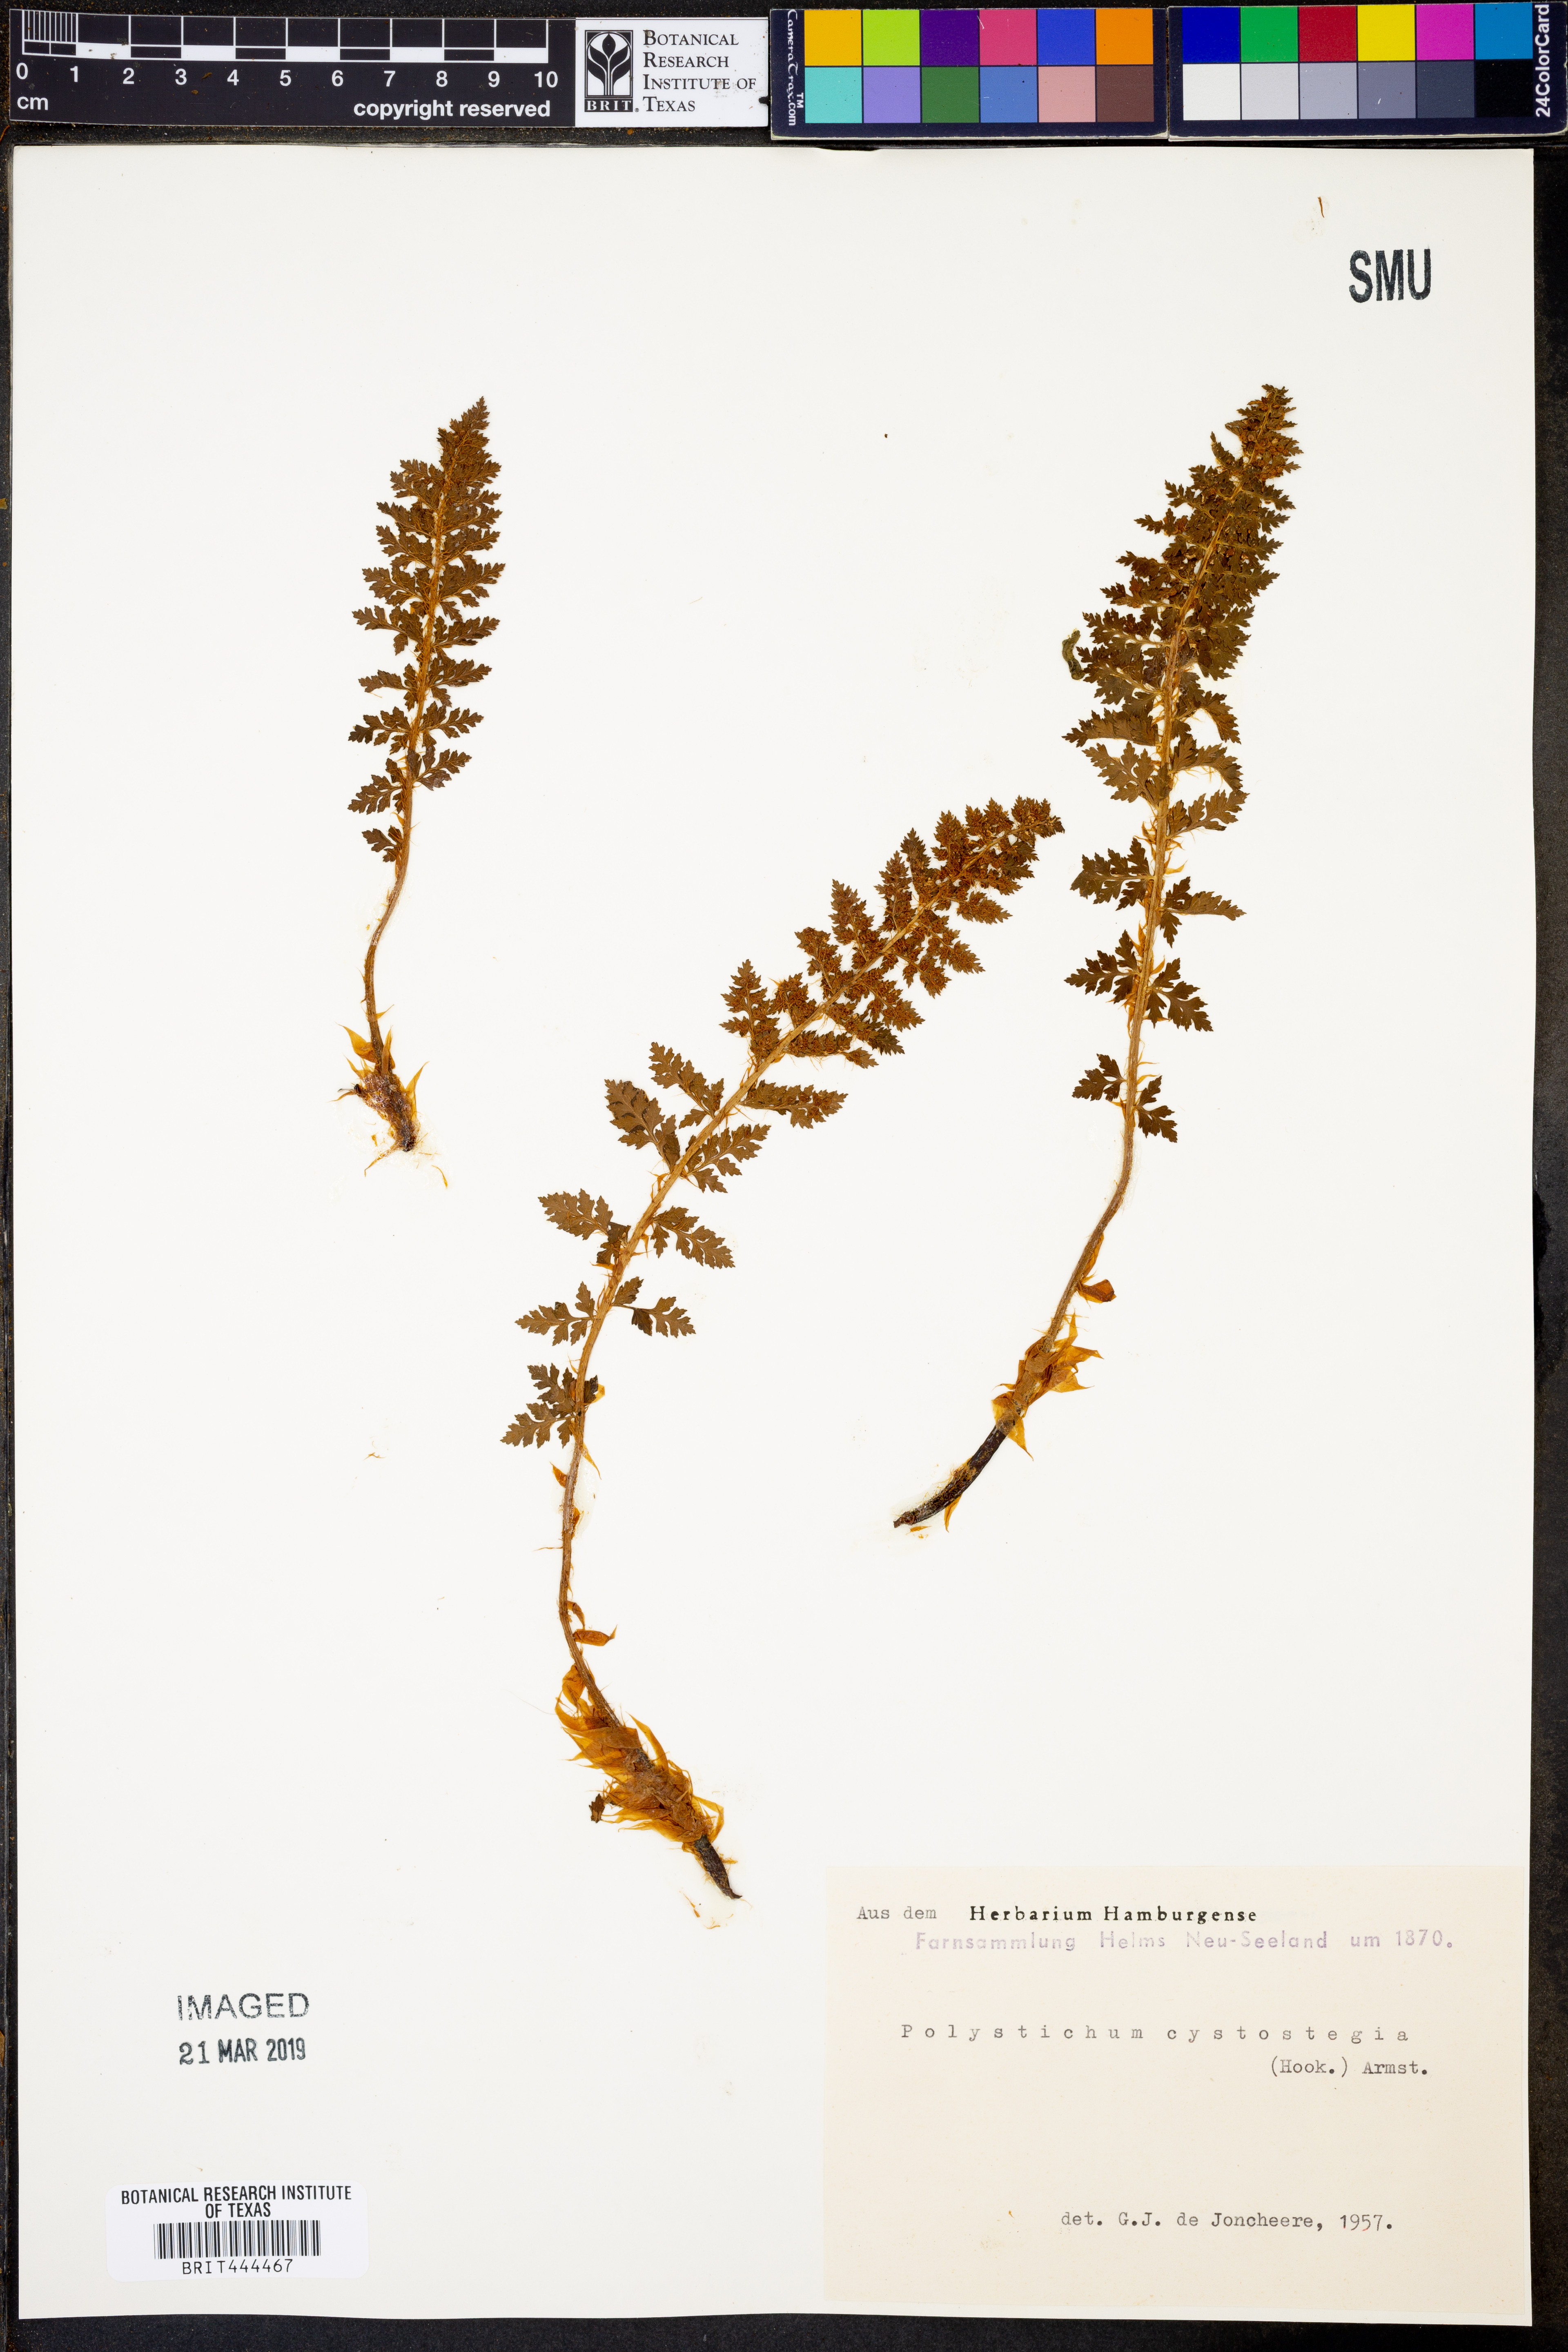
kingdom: Plantae
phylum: Tracheophyta
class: Polypodiopsida
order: Polypodiales
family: Dryopteridaceae
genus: Polystichum
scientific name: Polystichum cystostegia
